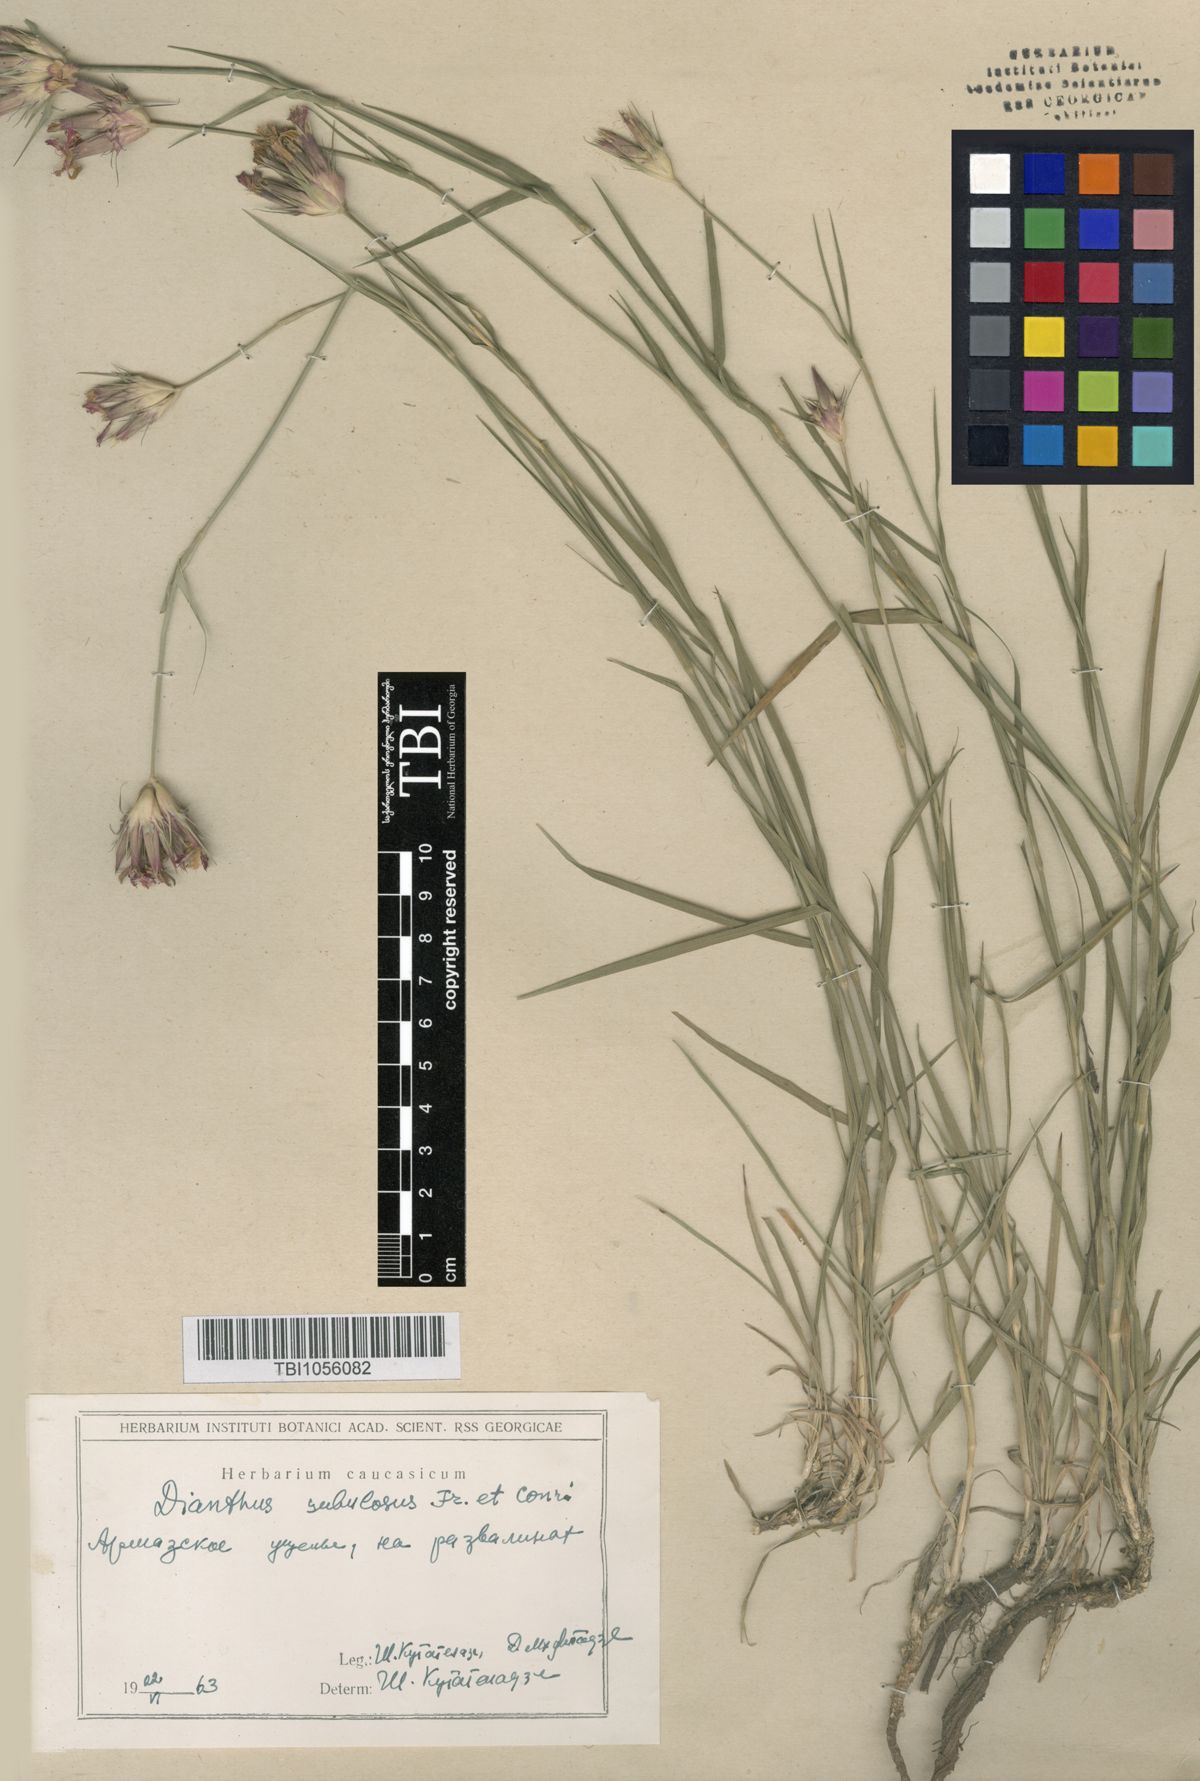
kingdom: Plantae
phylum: Tracheophyta
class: Magnoliopsida
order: Caryophyllales
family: Caryophyllaceae
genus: Dianthus
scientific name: Dianthus subulosus
